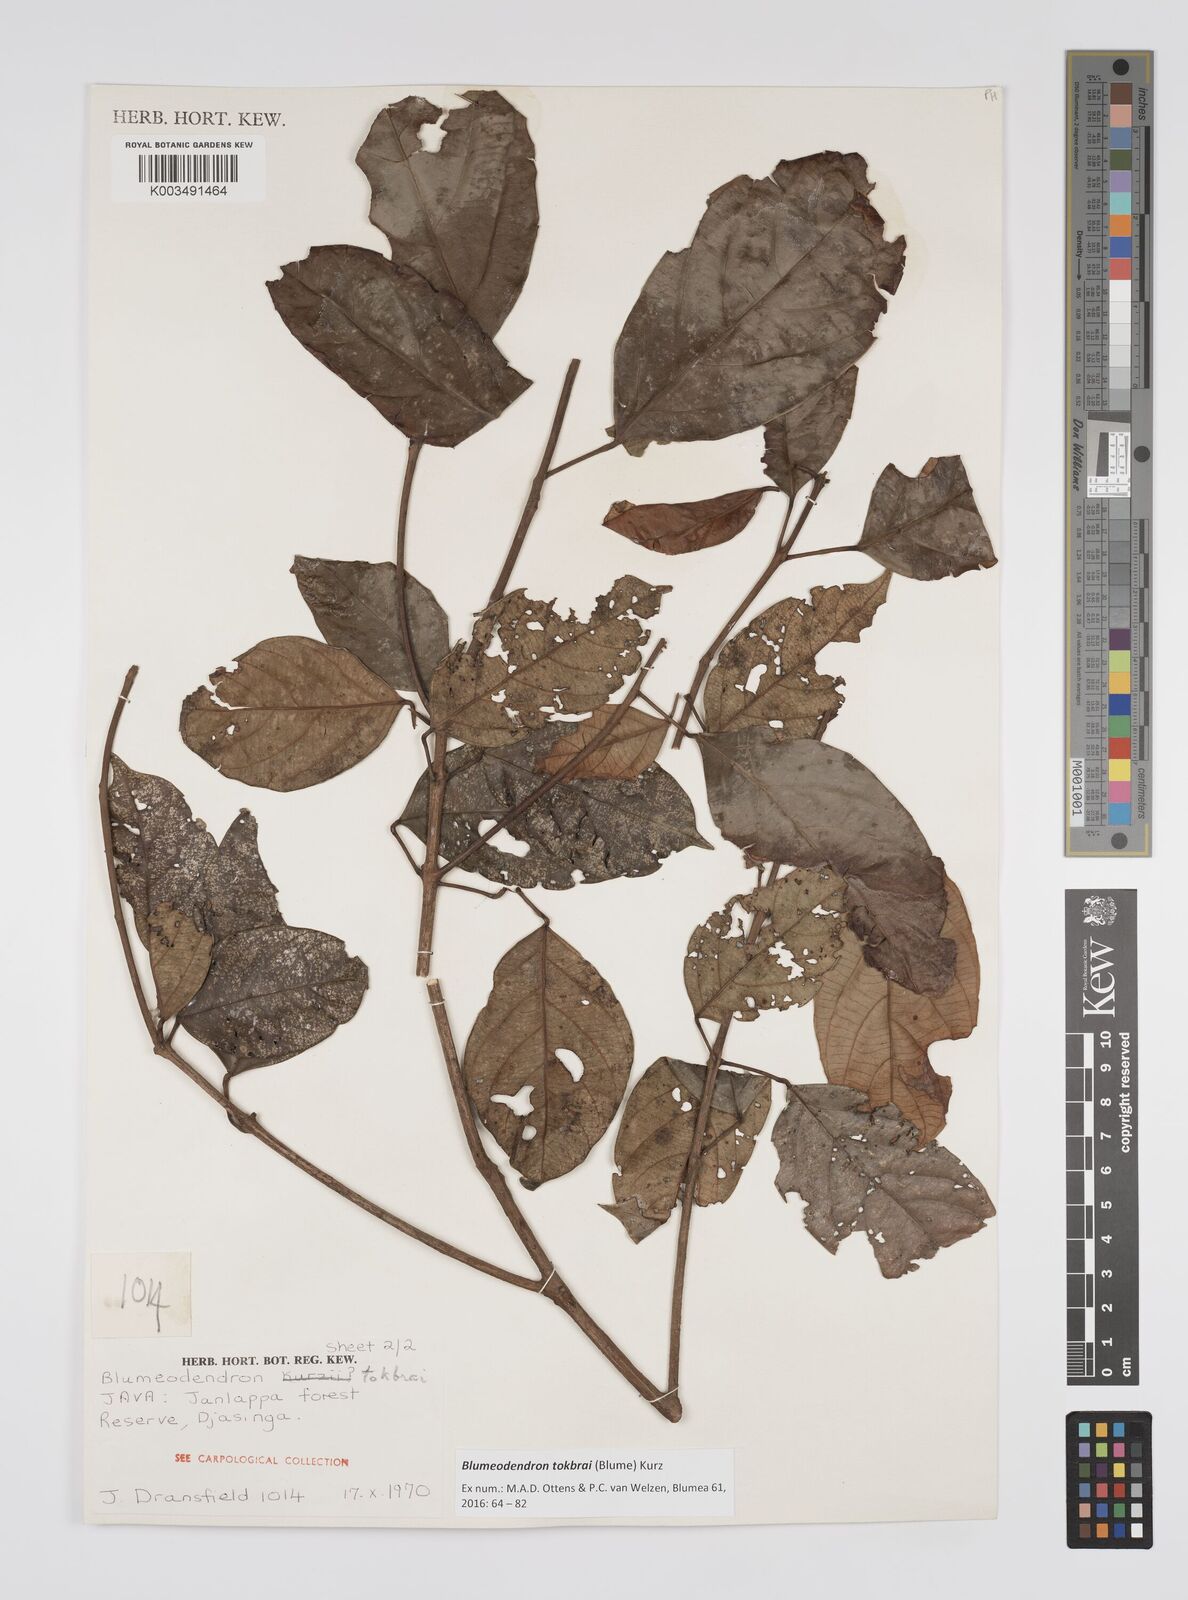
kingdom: Plantae
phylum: Tracheophyta
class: Magnoliopsida
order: Malpighiales
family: Euphorbiaceae
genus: Blumeodendron
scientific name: Blumeodendron tokbrai
